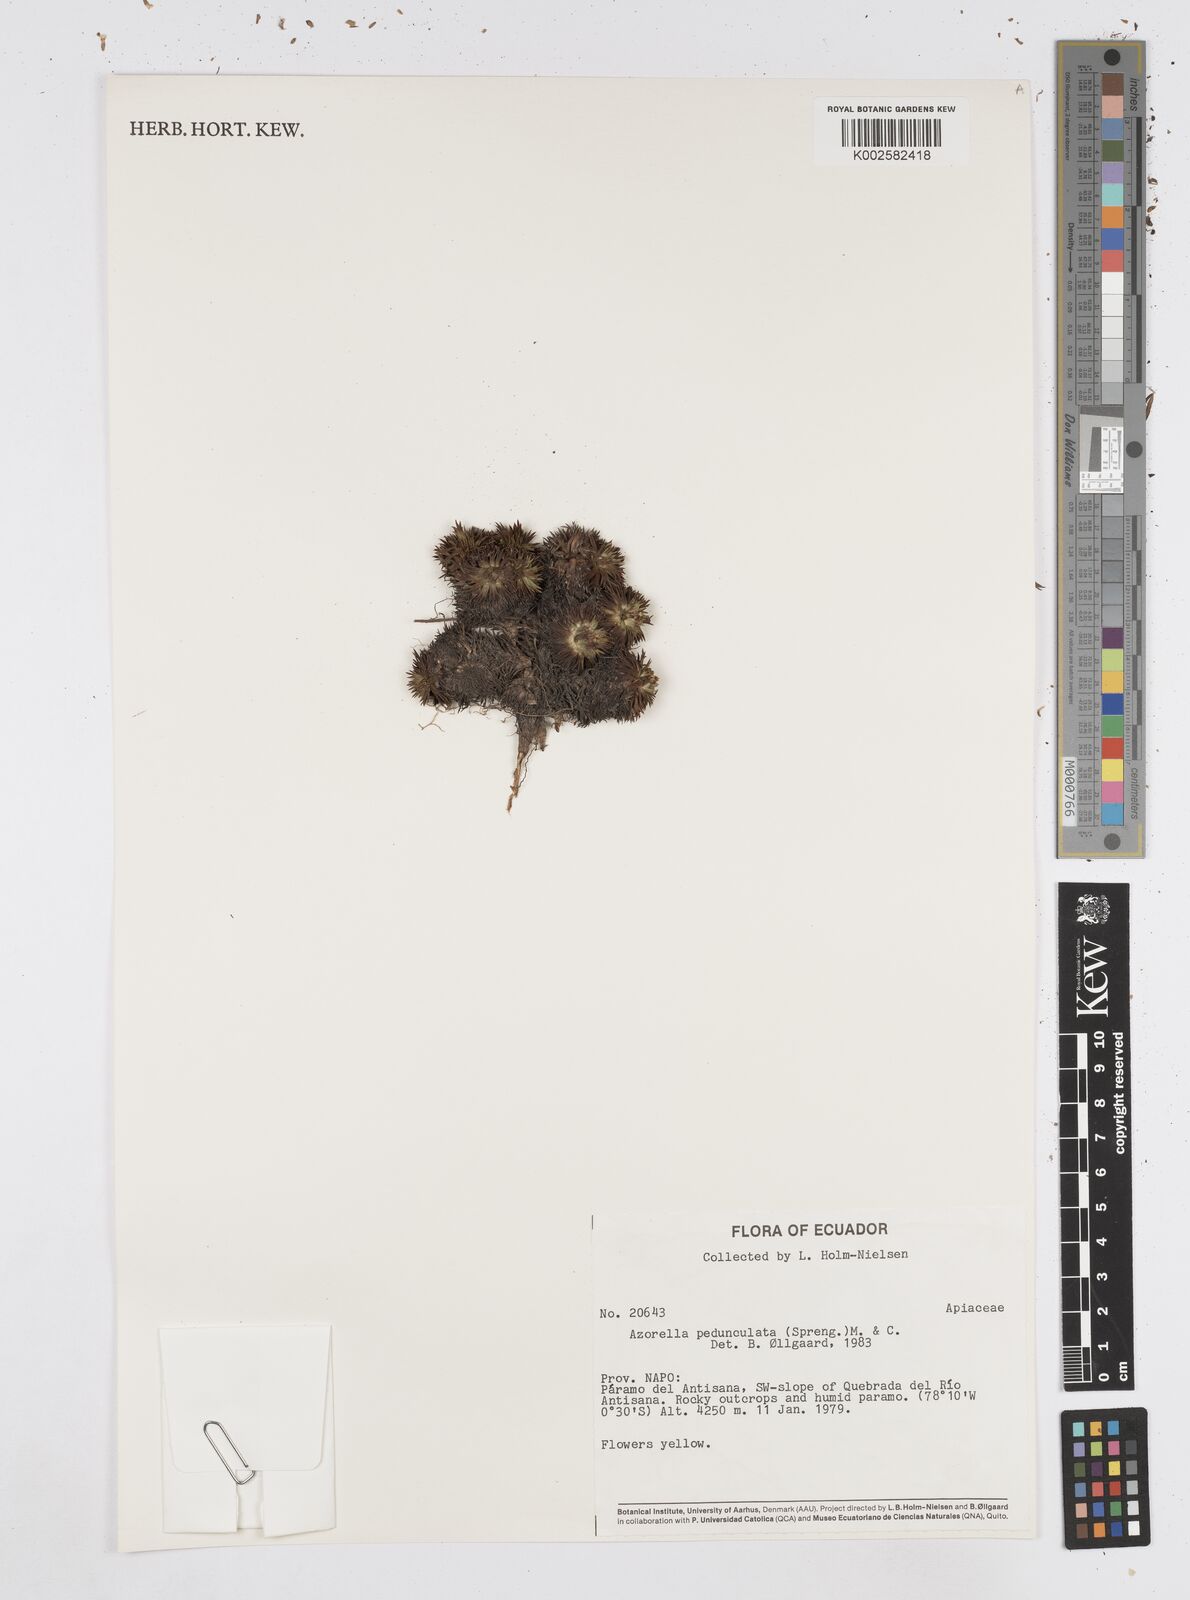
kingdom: Plantae
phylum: Tracheophyta
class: Magnoliopsida
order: Apiales
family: Apiaceae
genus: Azorella
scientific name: Azorella pedunculata
